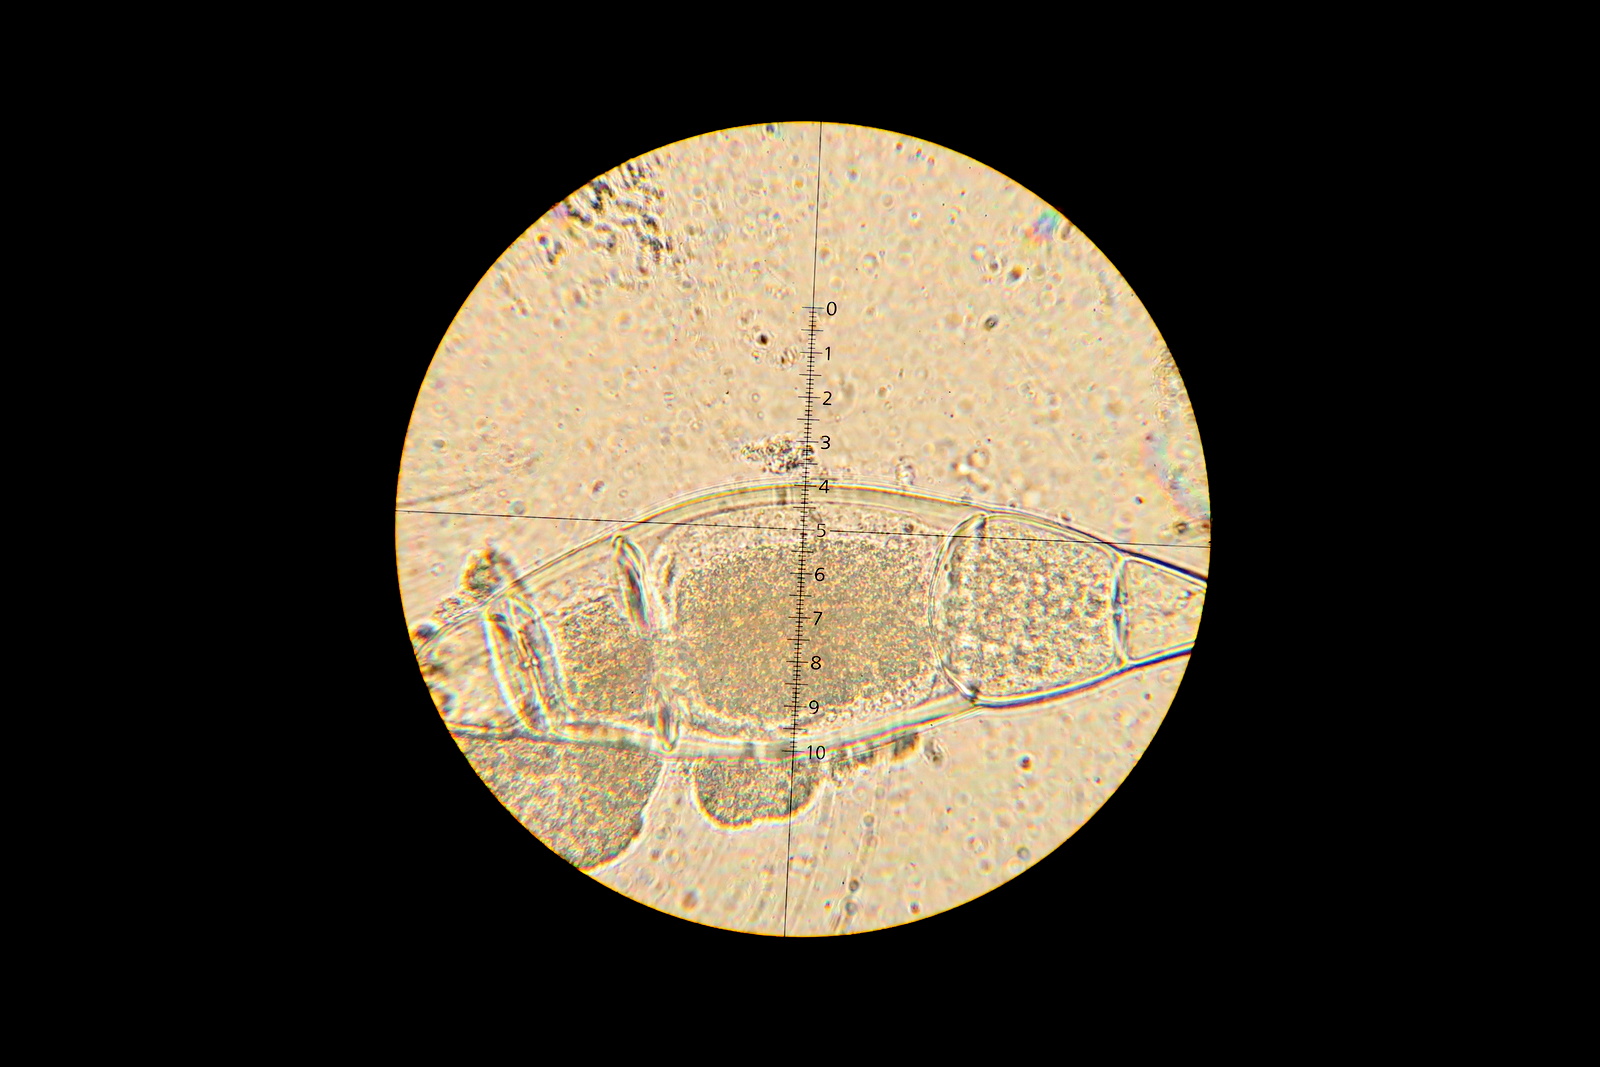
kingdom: Fungi
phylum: Ascomycota
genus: Bactridium
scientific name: Bactridium flavum
